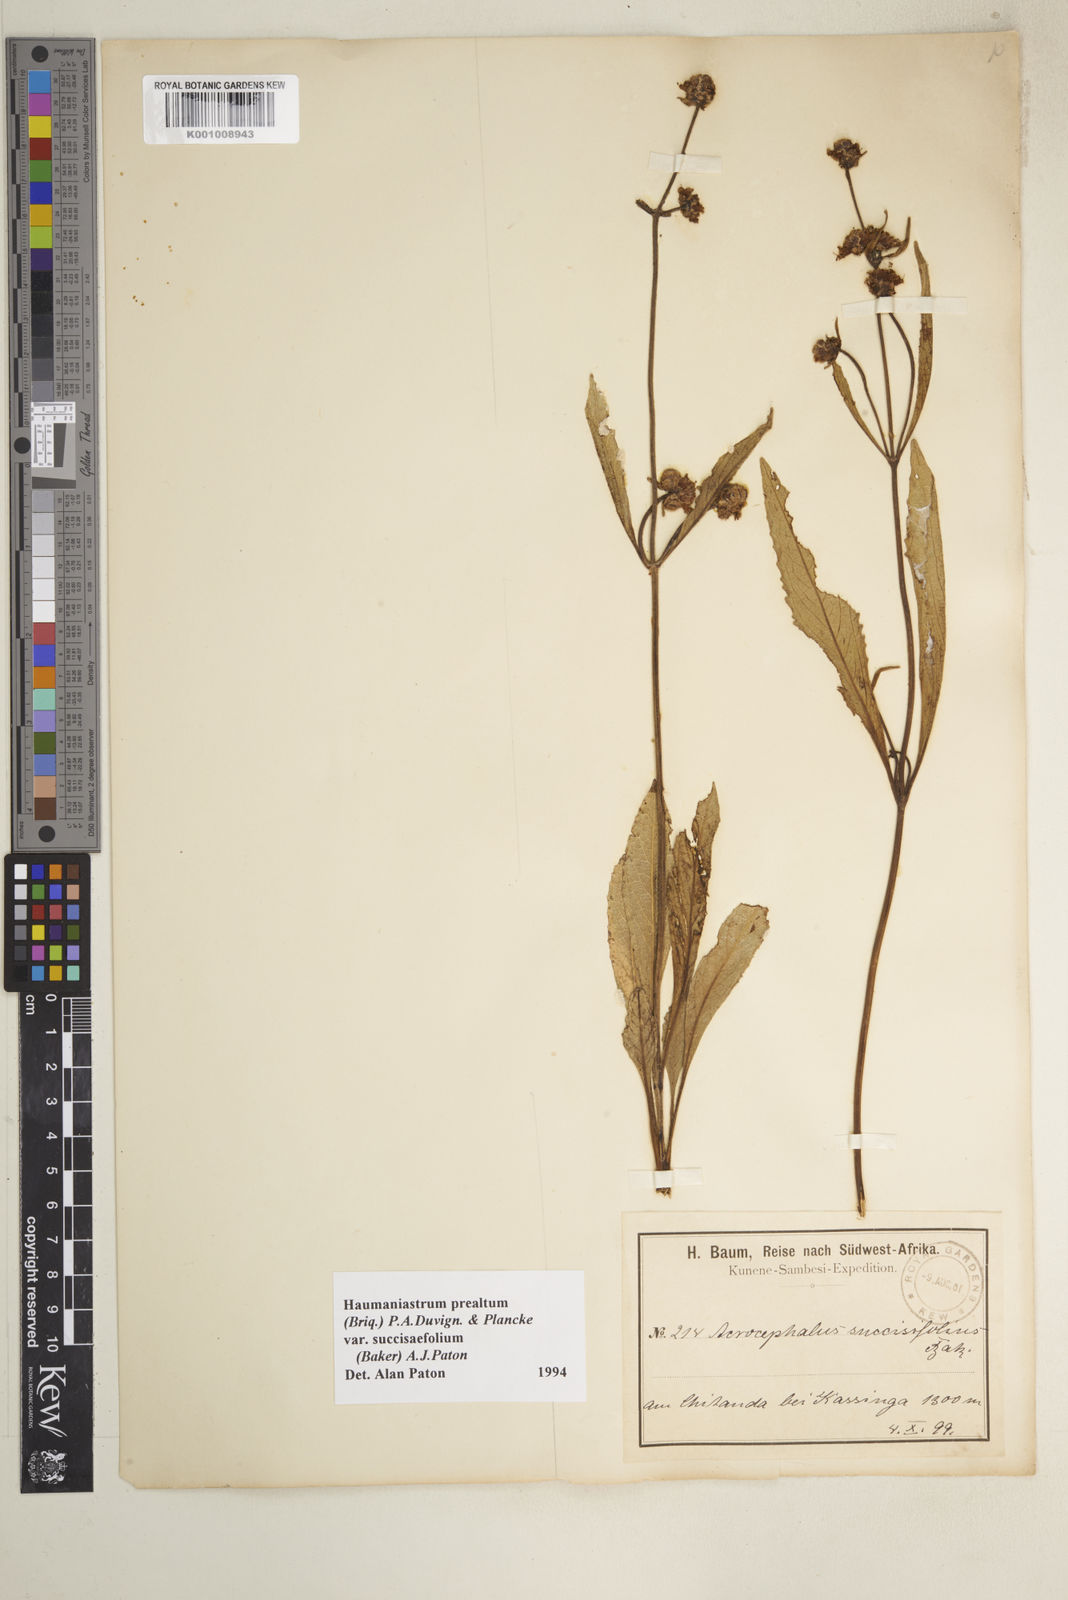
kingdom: Plantae
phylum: Tracheophyta
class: Magnoliopsida
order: Lamiales
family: Lamiaceae
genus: Haumaniastrum
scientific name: Haumaniastrum
